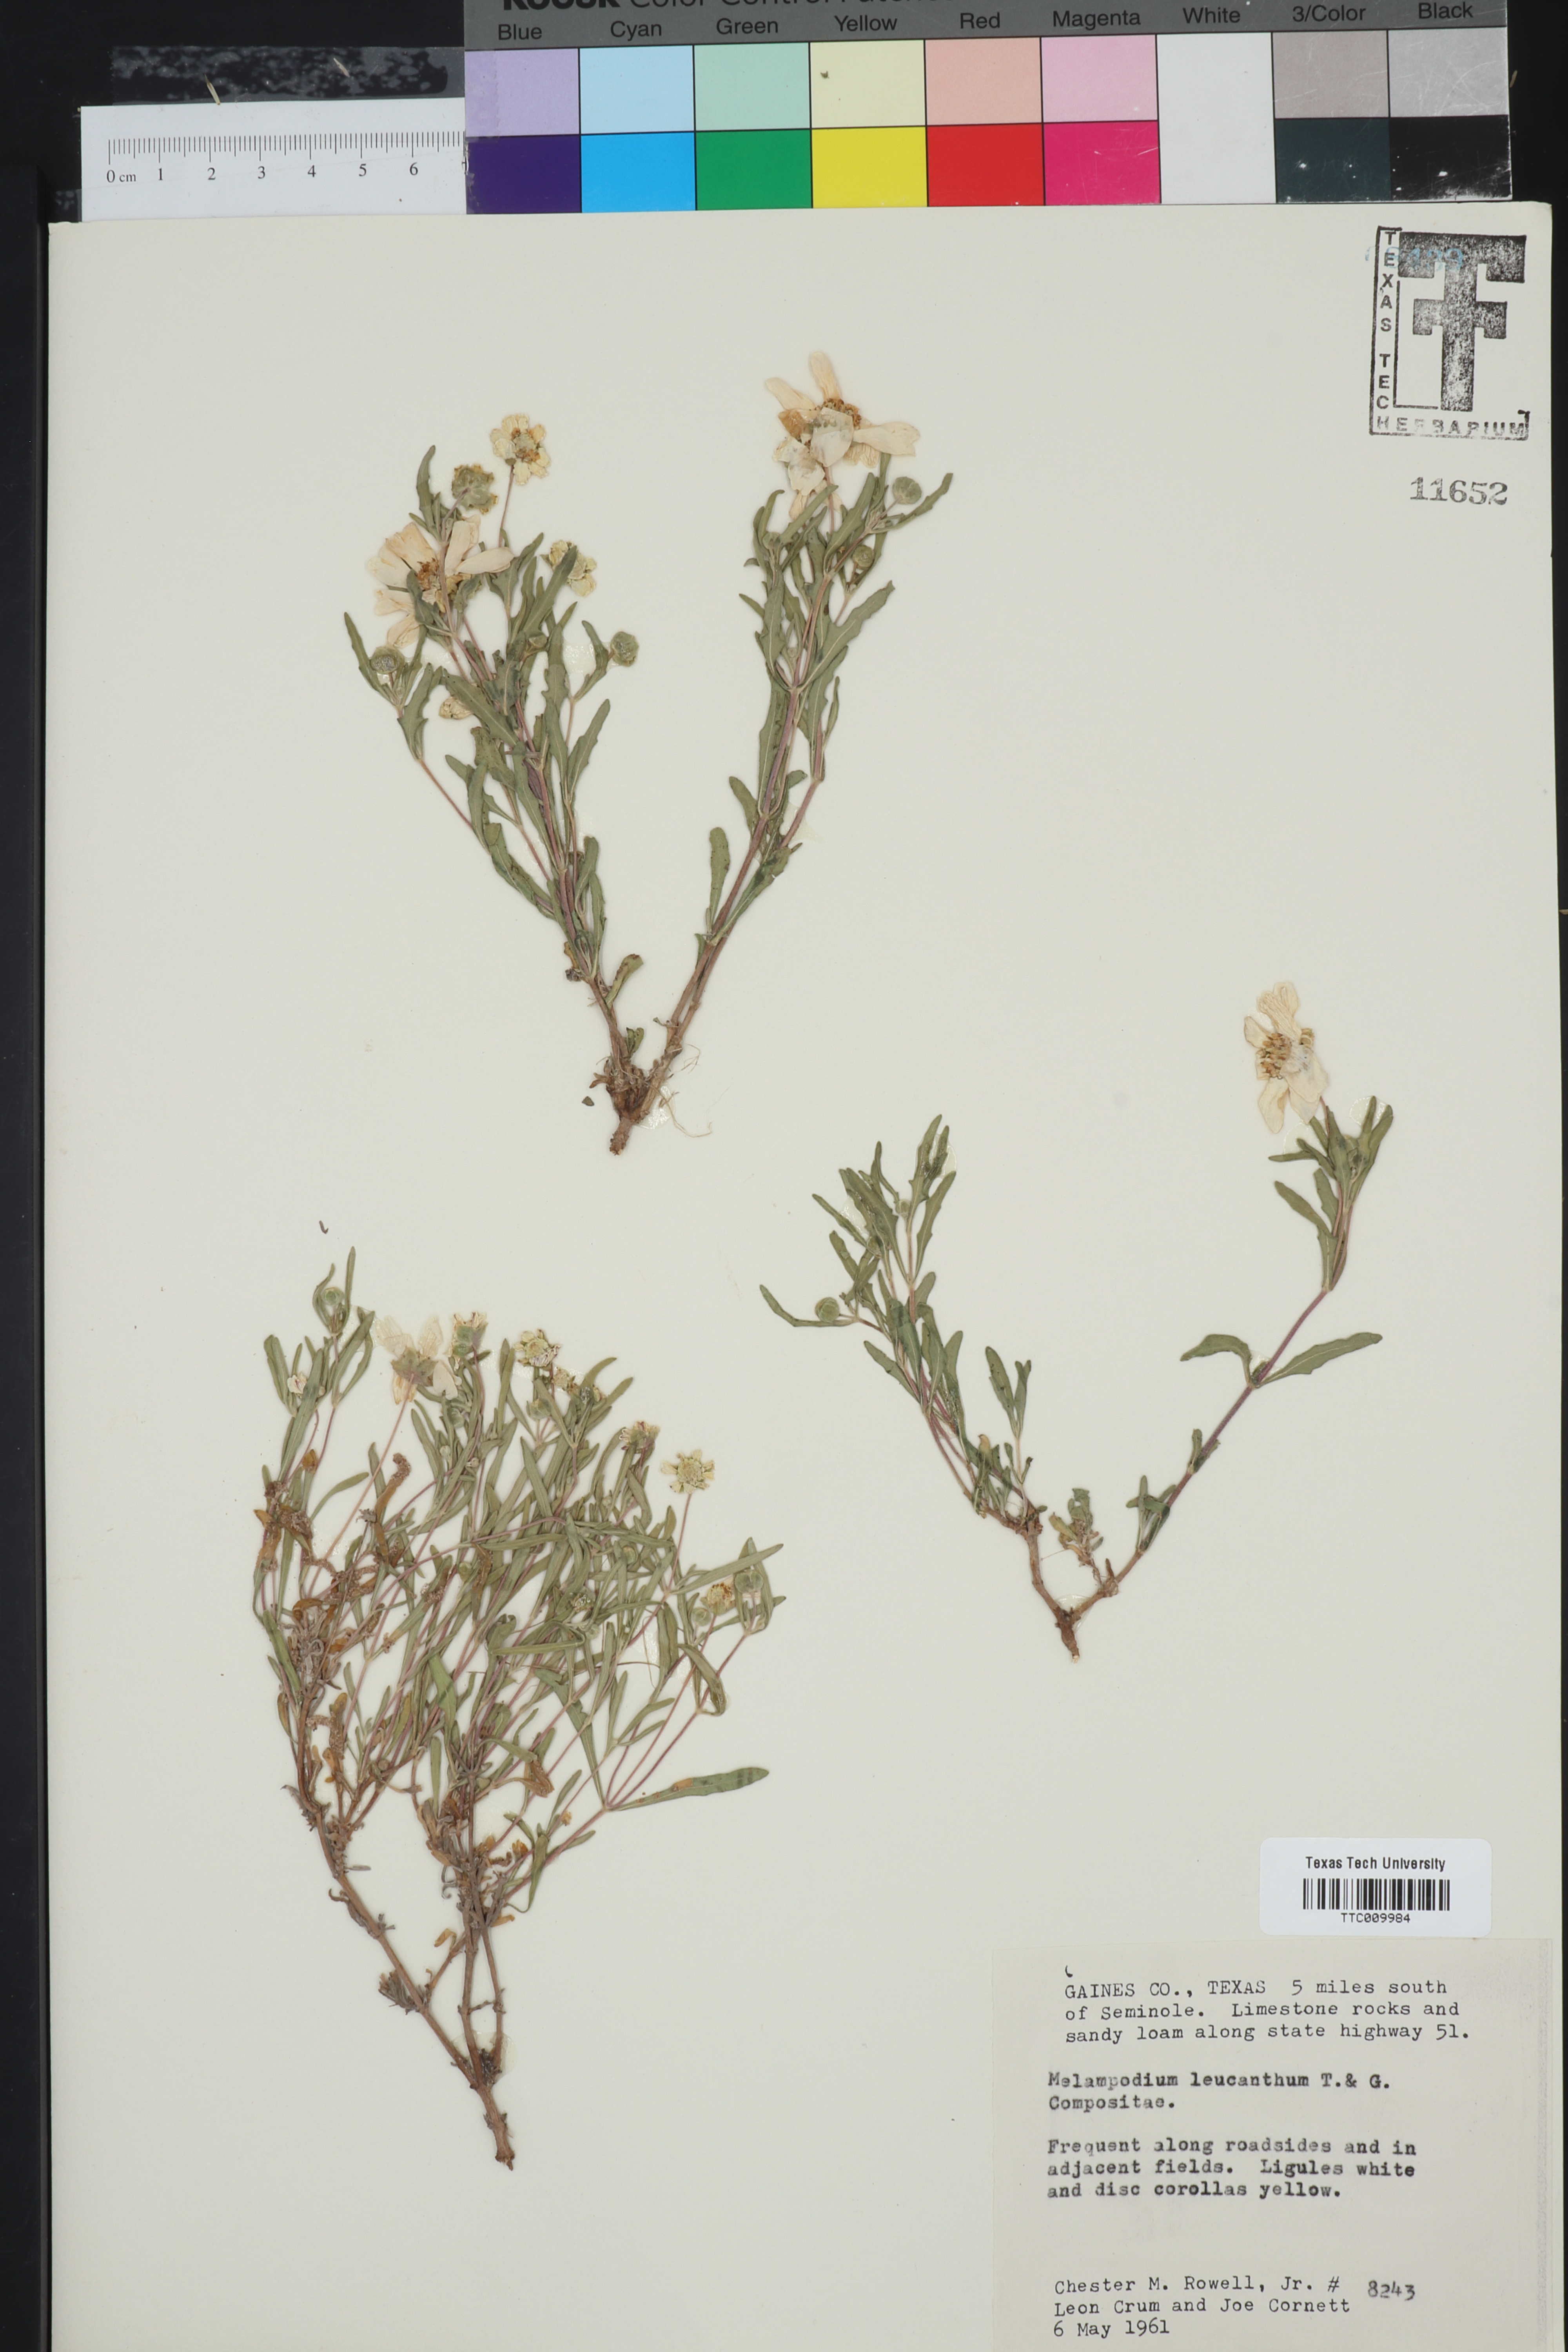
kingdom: Plantae
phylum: Tracheophyta
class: Magnoliopsida
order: Asterales
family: Asteraceae
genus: Melampodium
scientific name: Melampodium leucanthum
